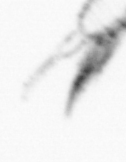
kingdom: Animalia
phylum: Arthropoda
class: Copepoda
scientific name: Copepoda
